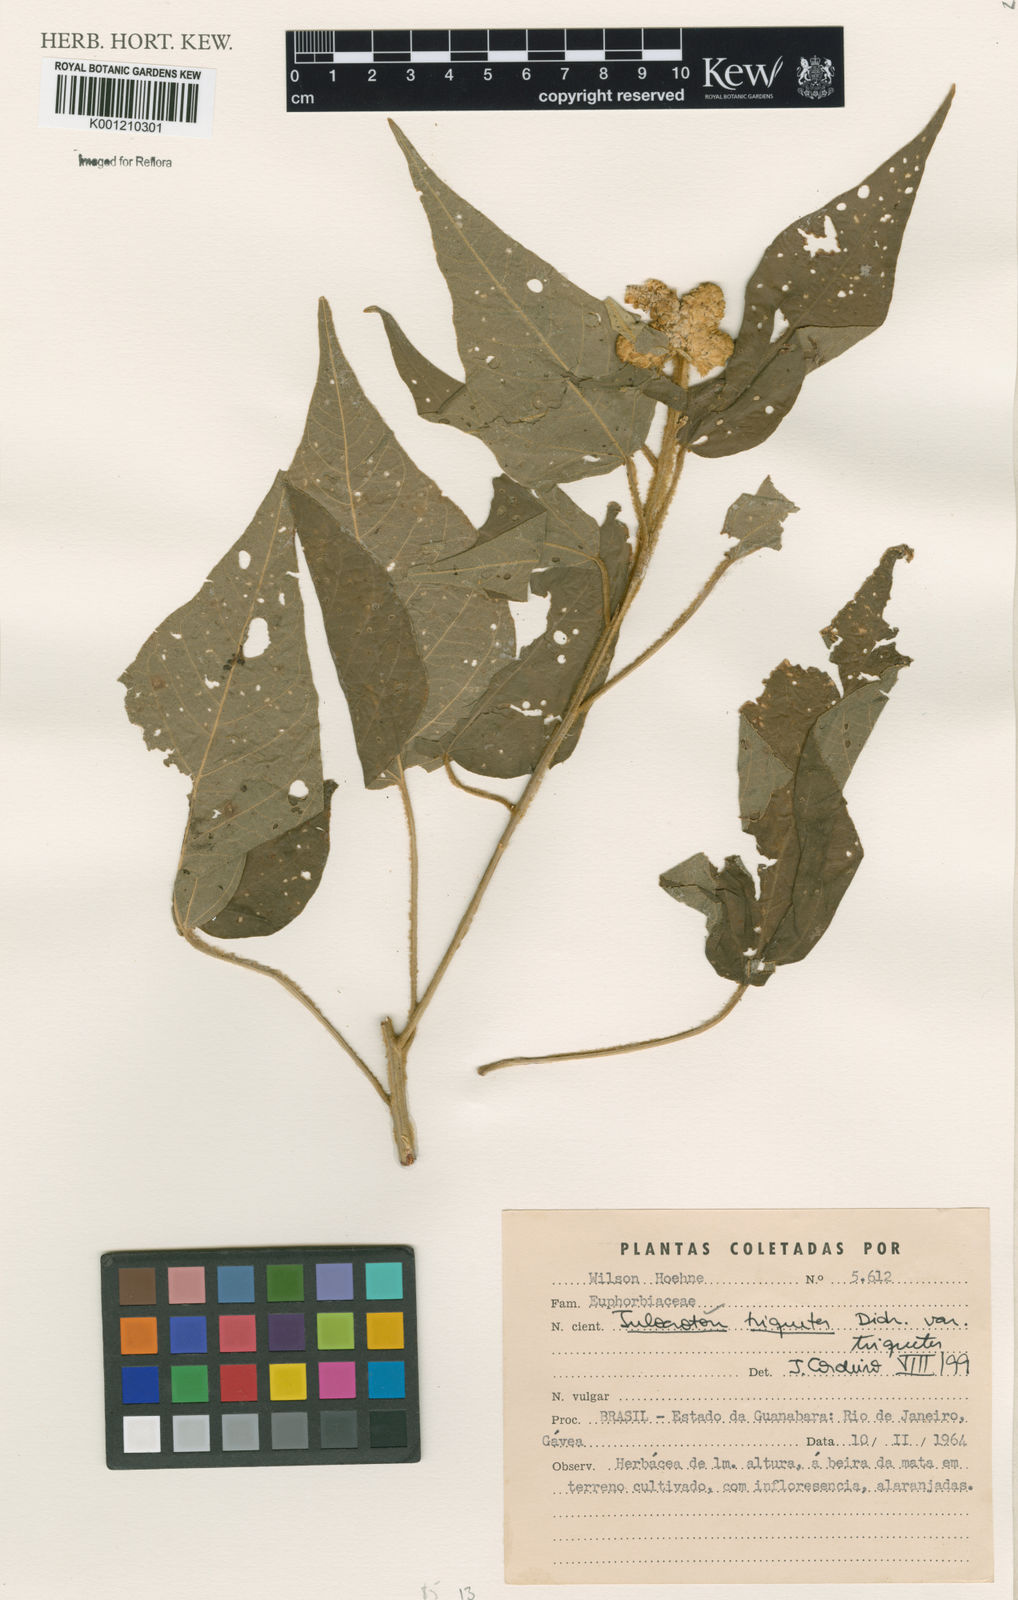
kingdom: Plantae
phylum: Tracheophyta
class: Magnoliopsida
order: Malpighiales
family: Euphorbiaceae
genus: Croton
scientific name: Croton triqueter
